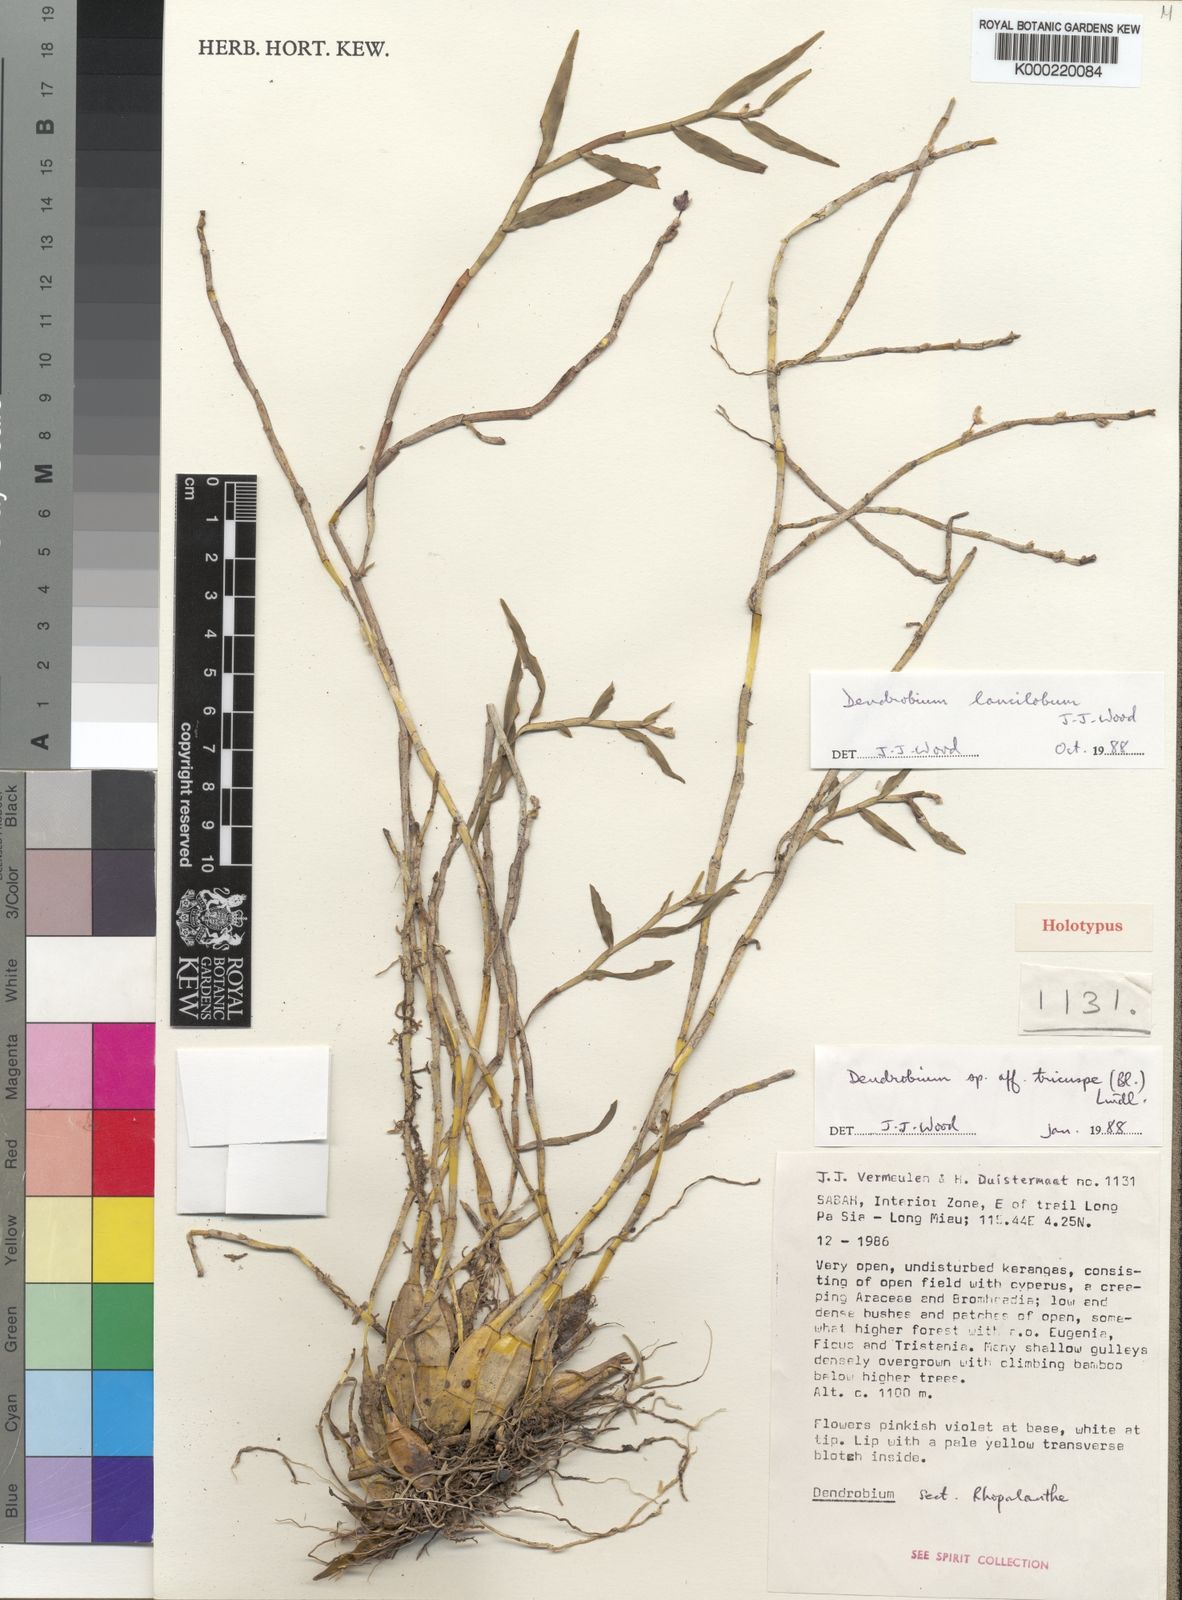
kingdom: Plantae
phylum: Tracheophyta
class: Liliopsida
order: Asparagales
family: Orchidaceae
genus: Dendrobium
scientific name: Dendrobium lancilobum
